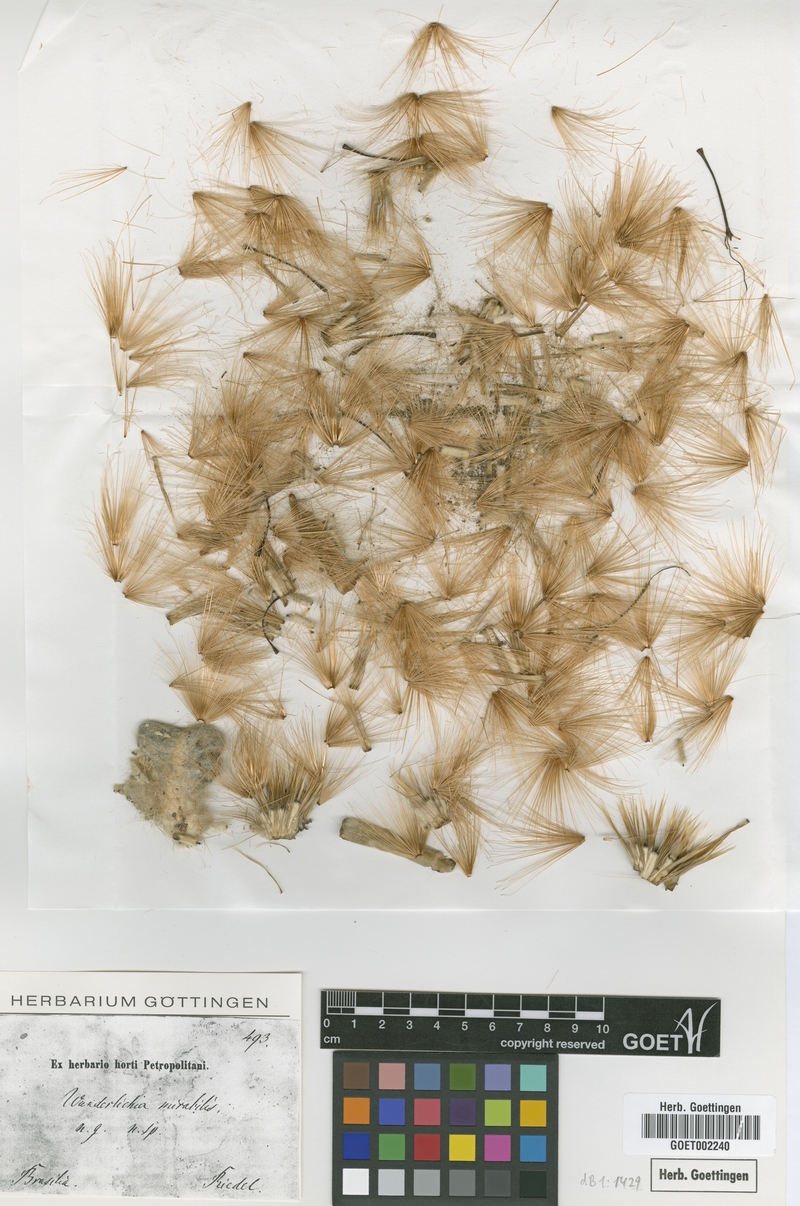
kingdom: Plantae
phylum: Tracheophyta
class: Magnoliopsida
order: Asterales
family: Asteraceae
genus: Wunderlichia
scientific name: Wunderlichia mirabilis
